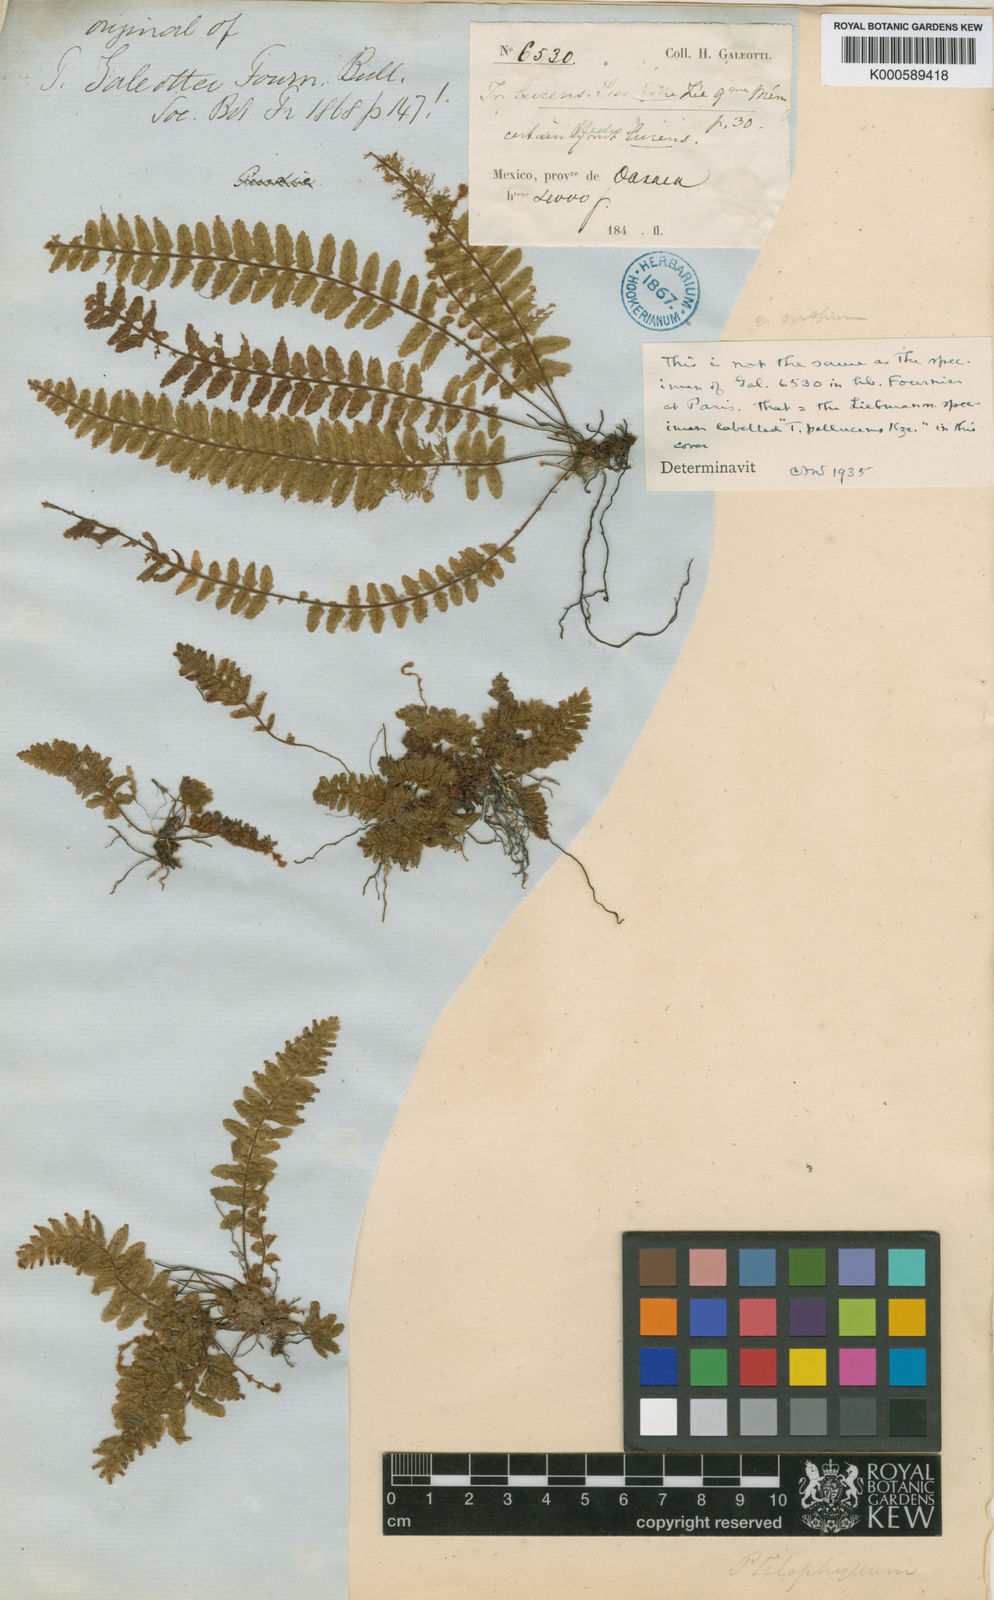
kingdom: Plantae
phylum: Tracheophyta
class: Polypodiopsida
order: Hymenophyllales
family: Hymenophyllaceae
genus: Trichomanes
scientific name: Trichomanes crispum
